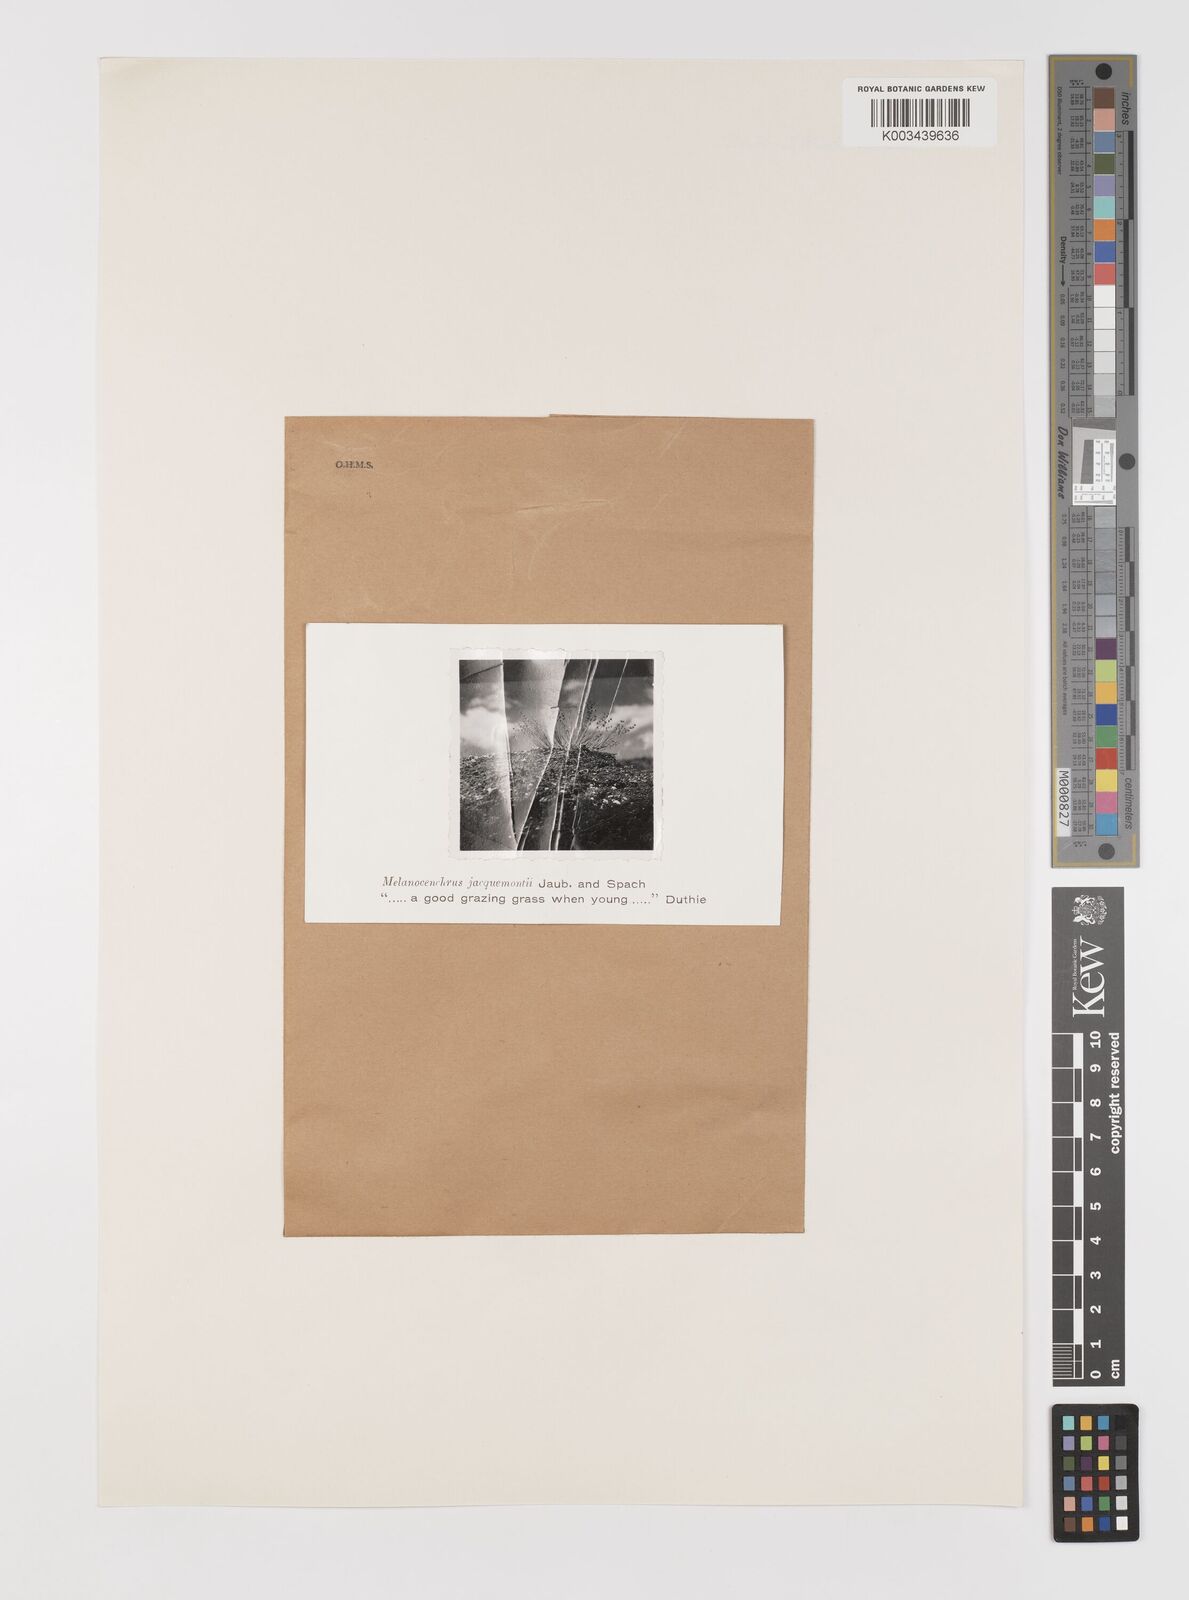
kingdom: Plantae
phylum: Tracheophyta
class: Liliopsida
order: Poales
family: Poaceae
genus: Melanocenchris
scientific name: Melanocenchris jacquemontii
